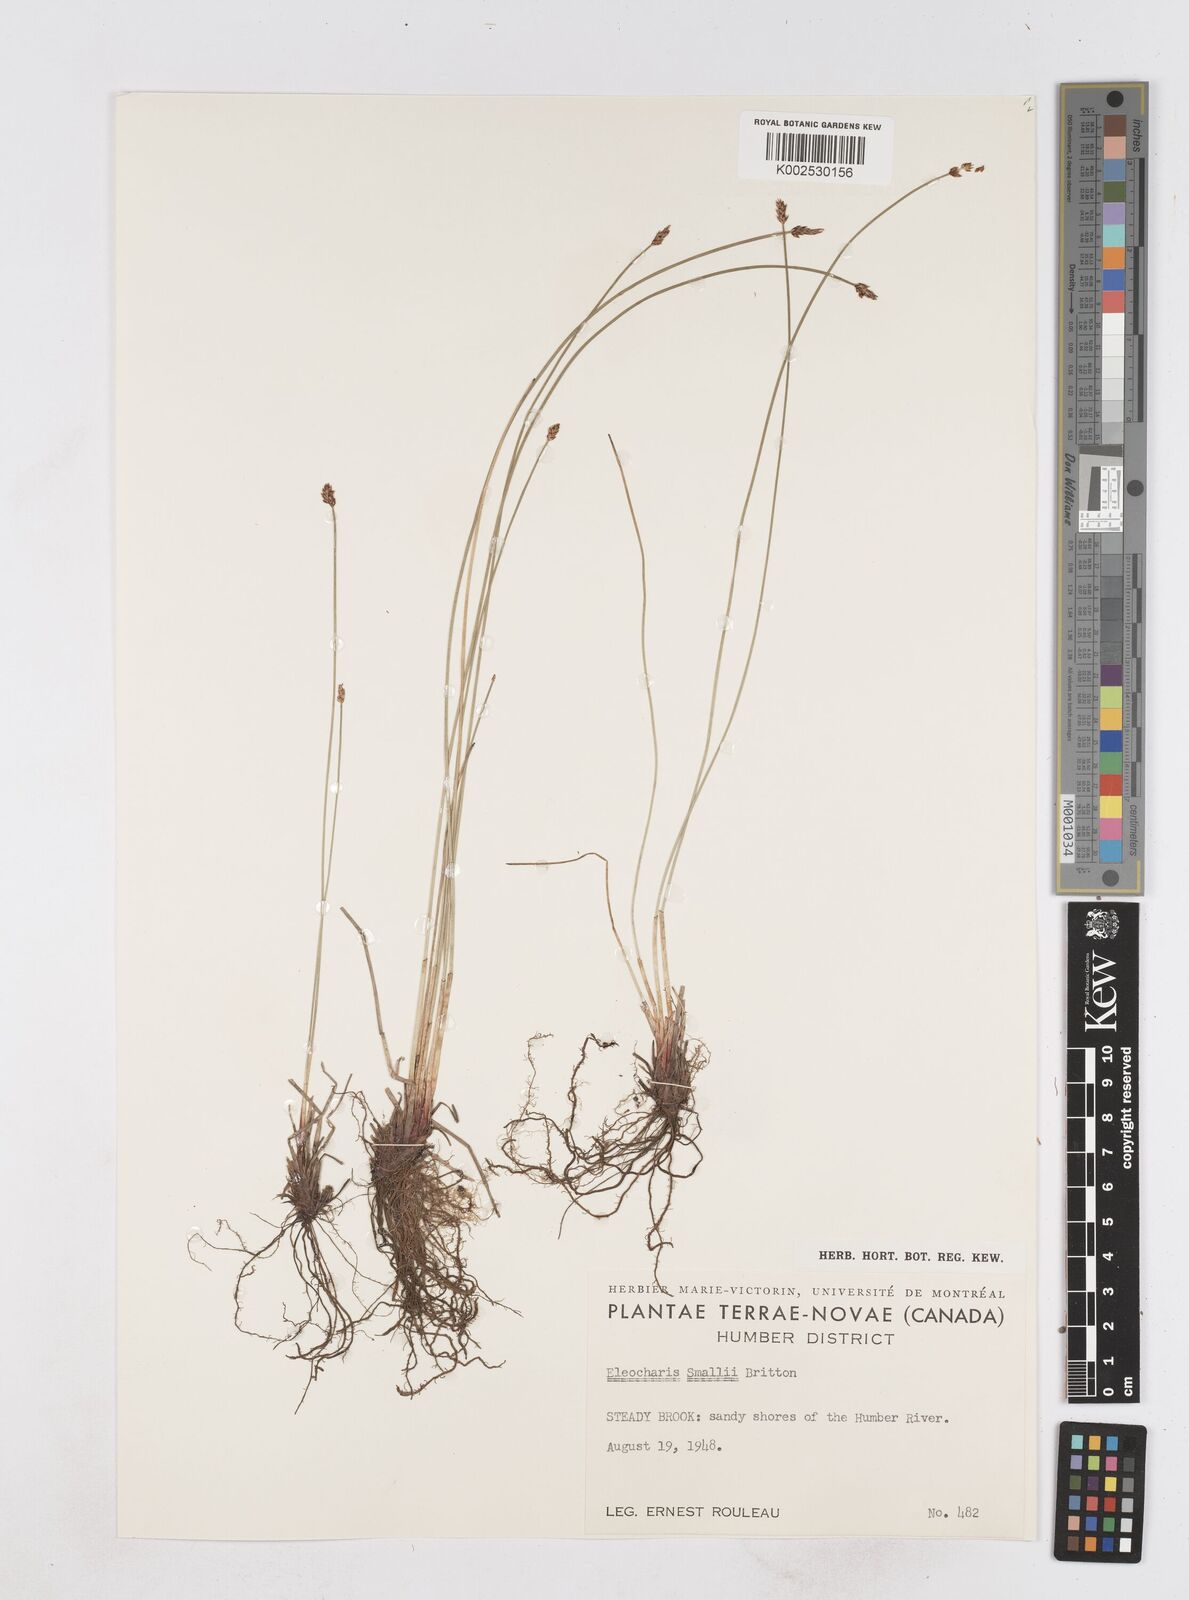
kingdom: Plantae
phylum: Tracheophyta
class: Liliopsida
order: Poales
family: Cyperaceae
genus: Eleocharis
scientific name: Eleocharis palustris
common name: Common spike-rush
